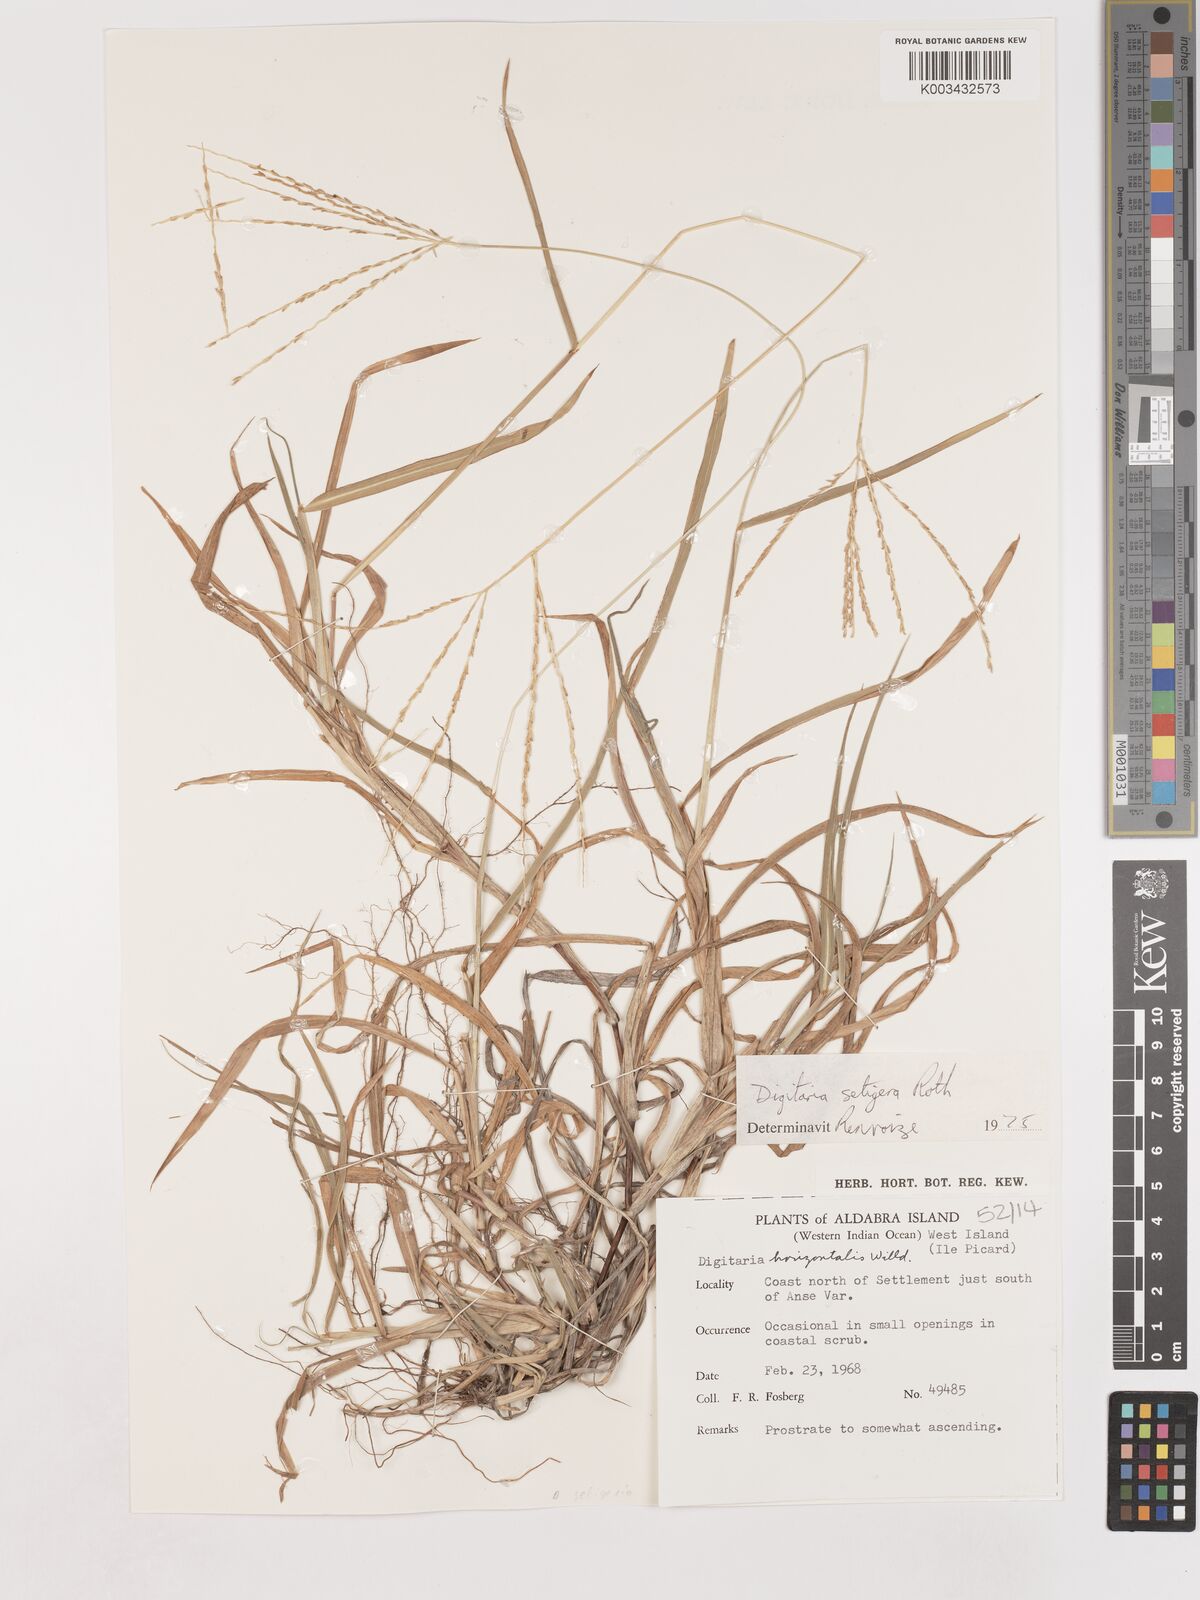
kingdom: Plantae
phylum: Tracheophyta
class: Liliopsida
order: Poales
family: Poaceae
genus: Digitaria
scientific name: Digitaria setigera
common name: East indian crabgrass
